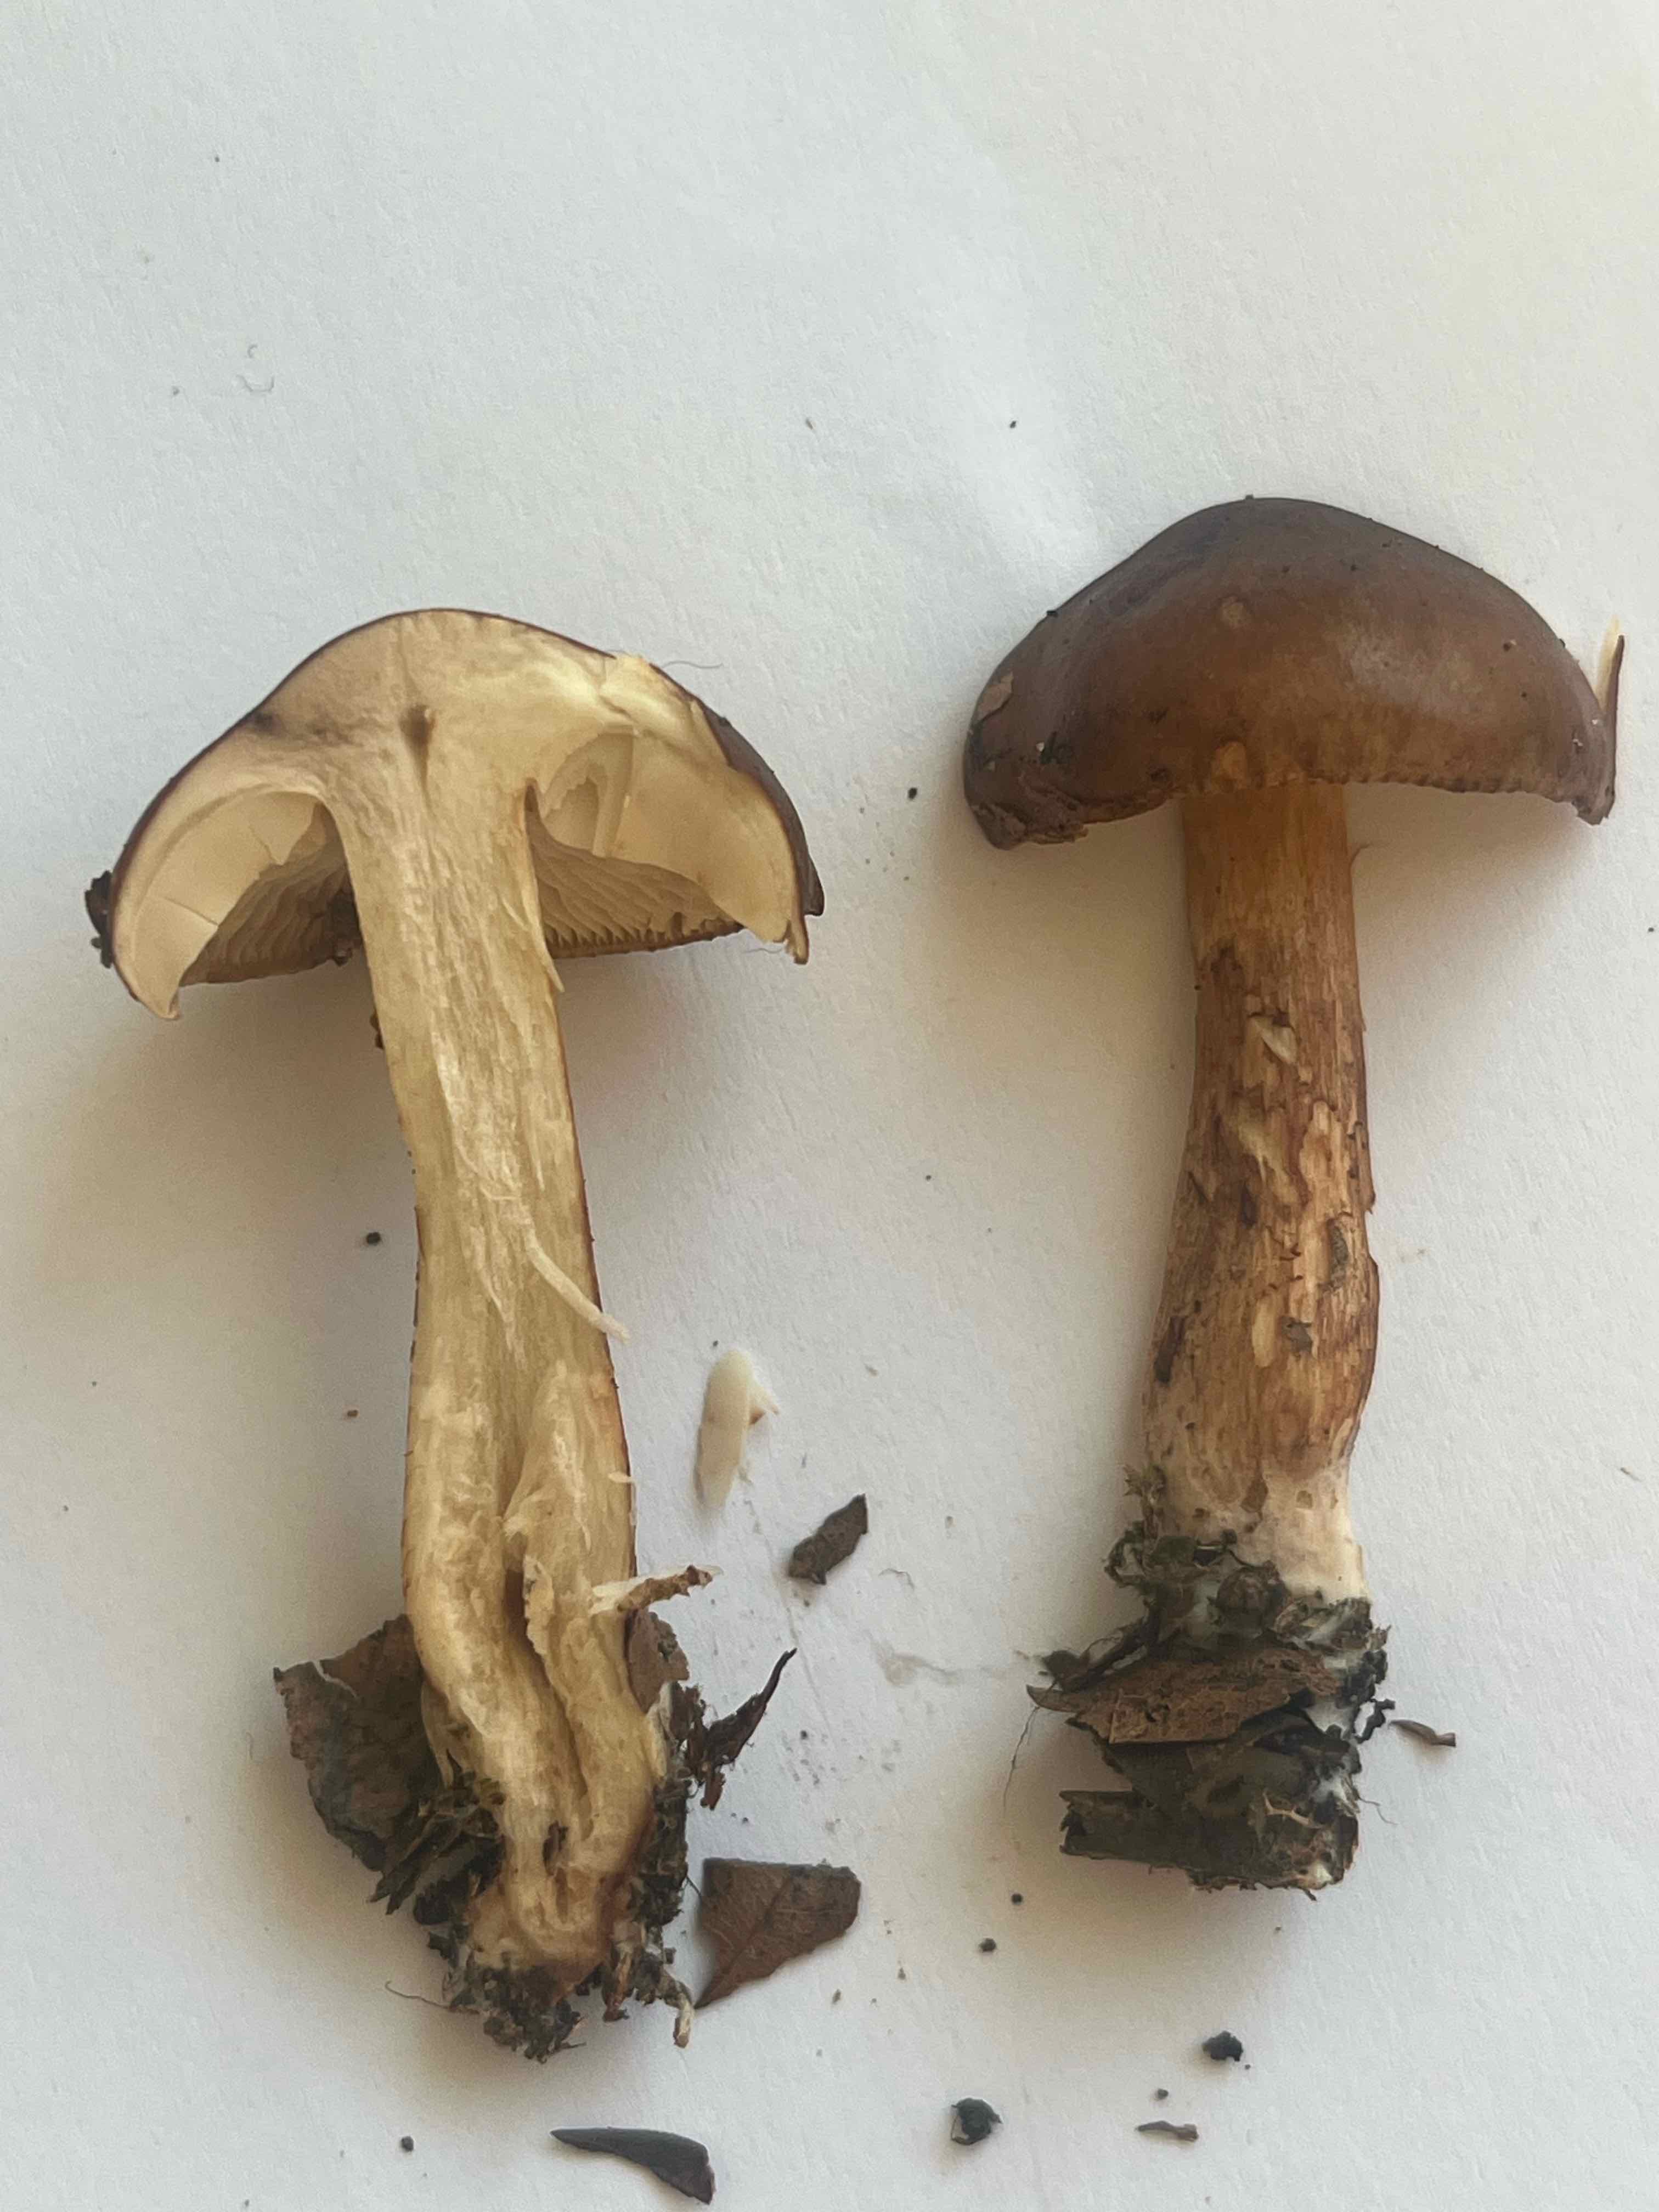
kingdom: Fungi
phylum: Basidiomycota
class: Agaricomycetes
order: Agaricales
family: Tricholomataceae
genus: Tricholoma
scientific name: Tricholoma ustale
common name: sveden ridderhat
